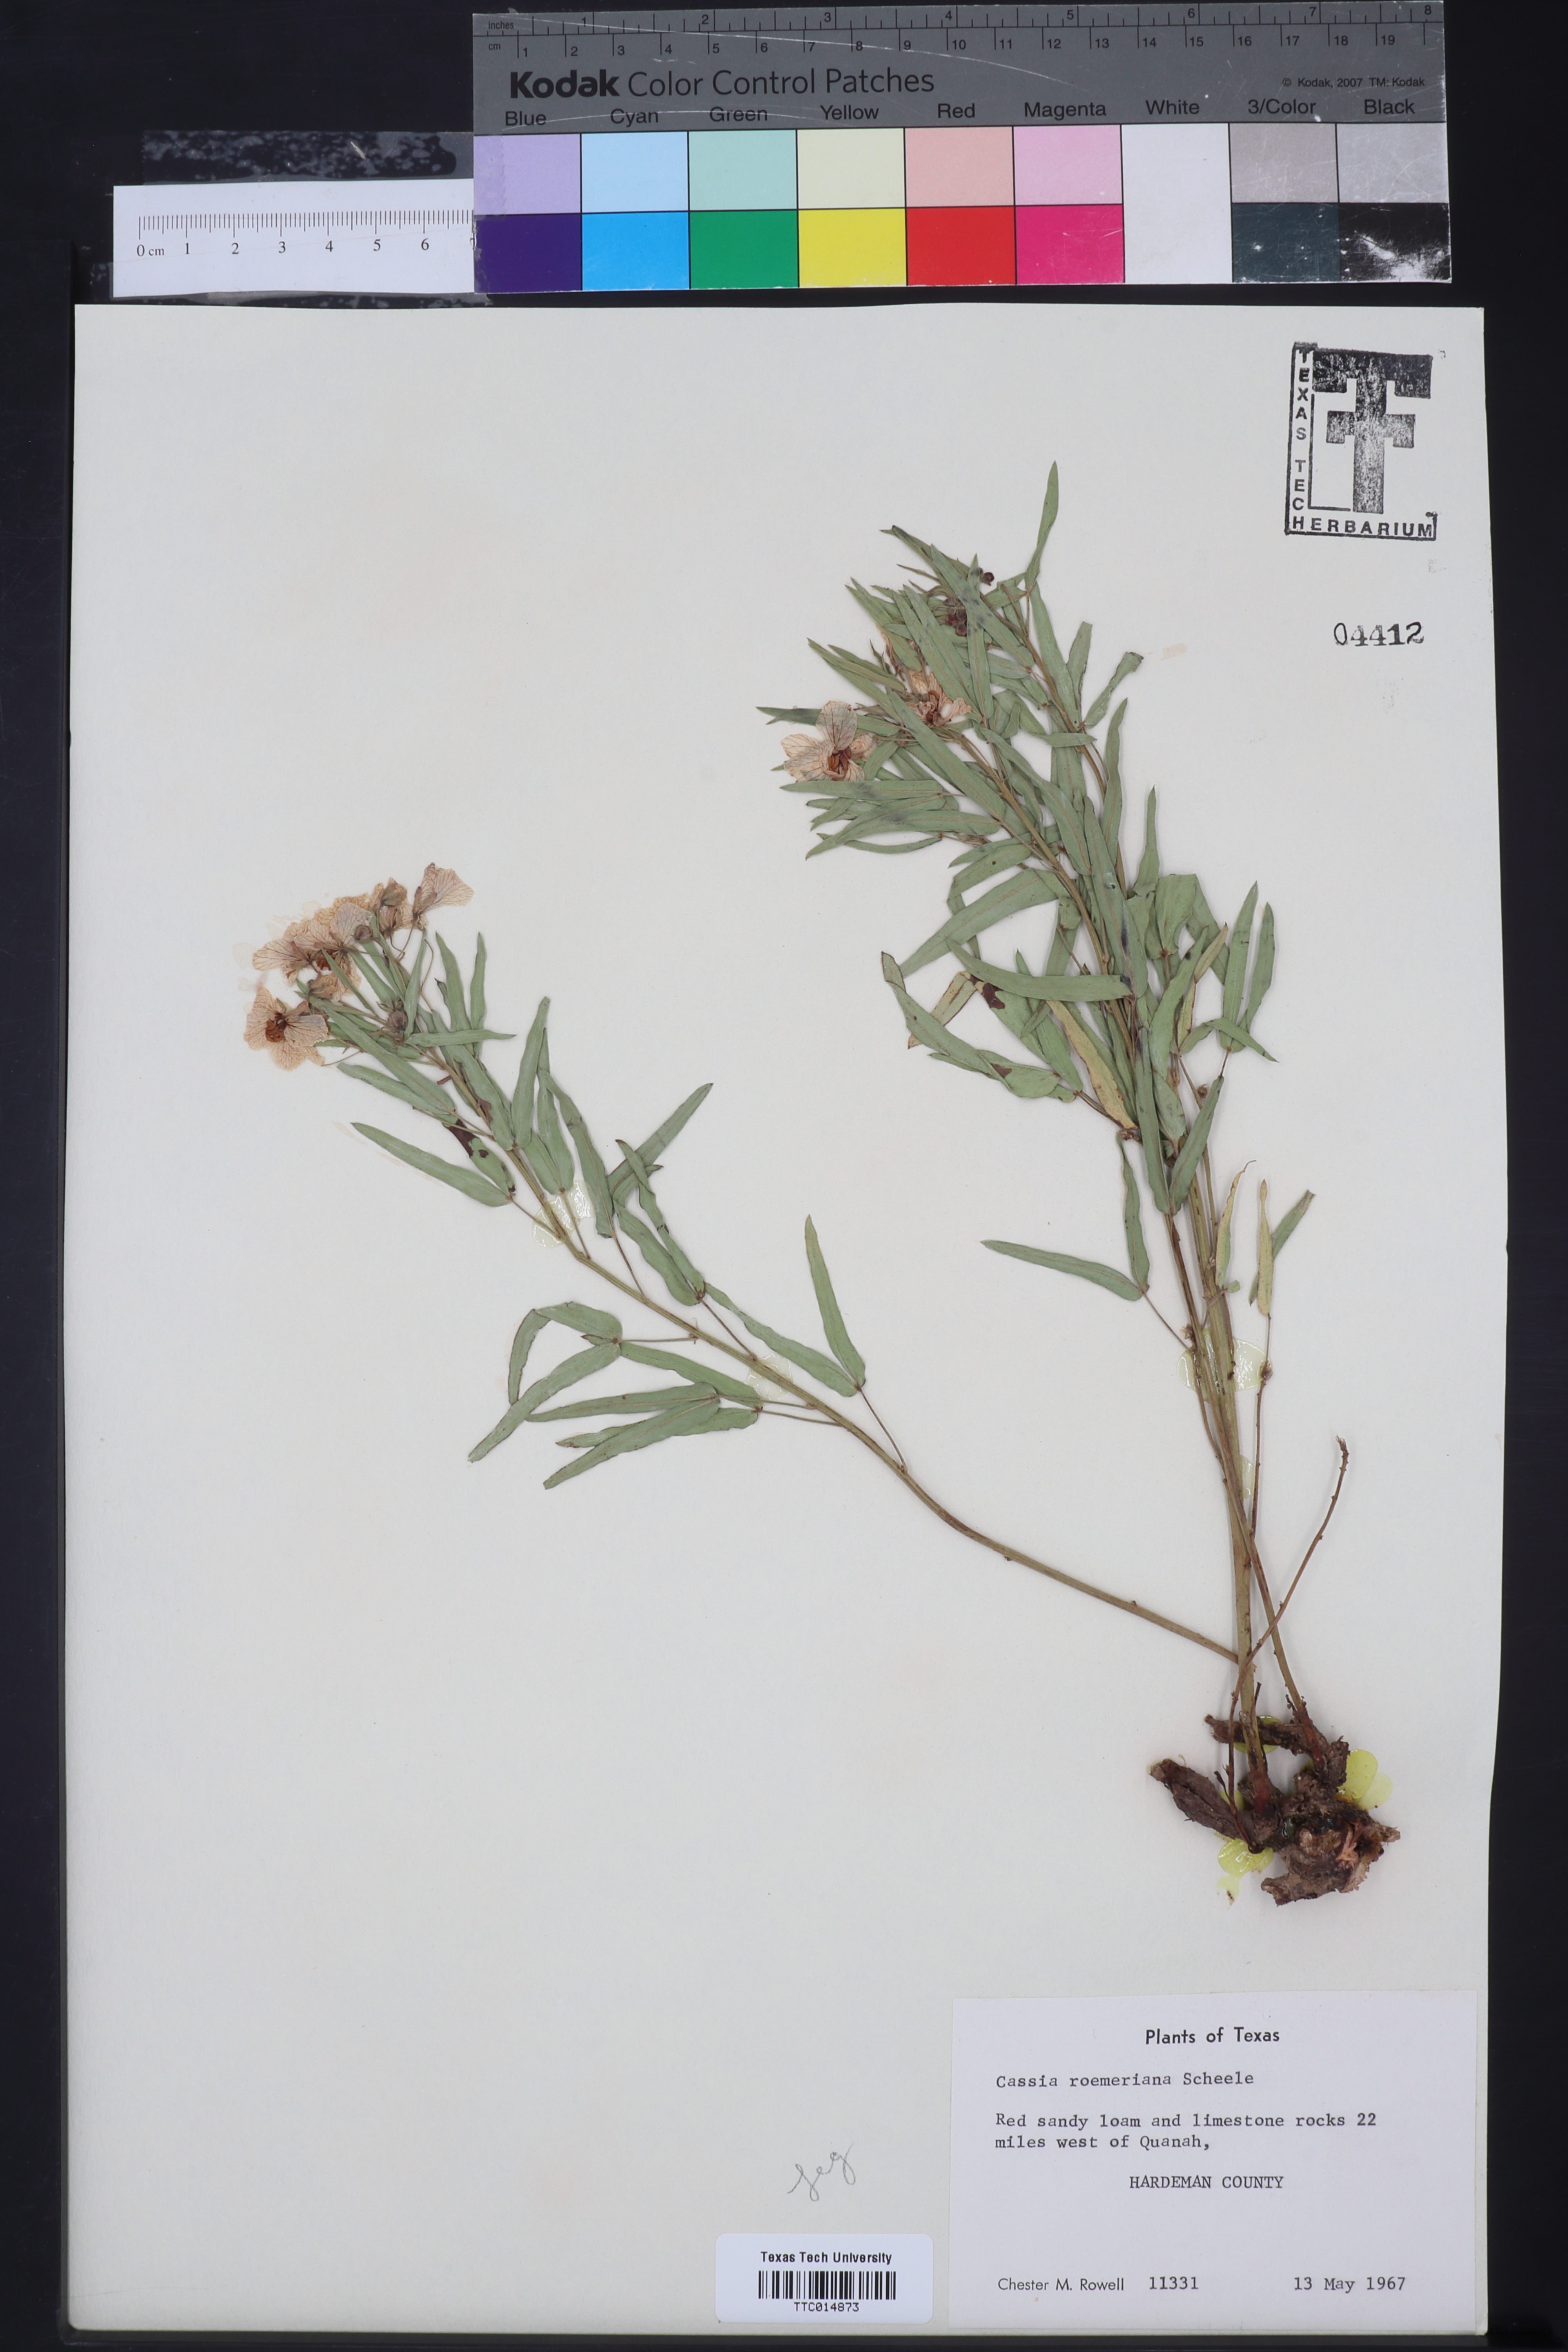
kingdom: Plantae
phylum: Tracheophyta
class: Magnoliopsida
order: Fabales
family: Fabaceae
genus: Senna
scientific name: Senna roemeriana
